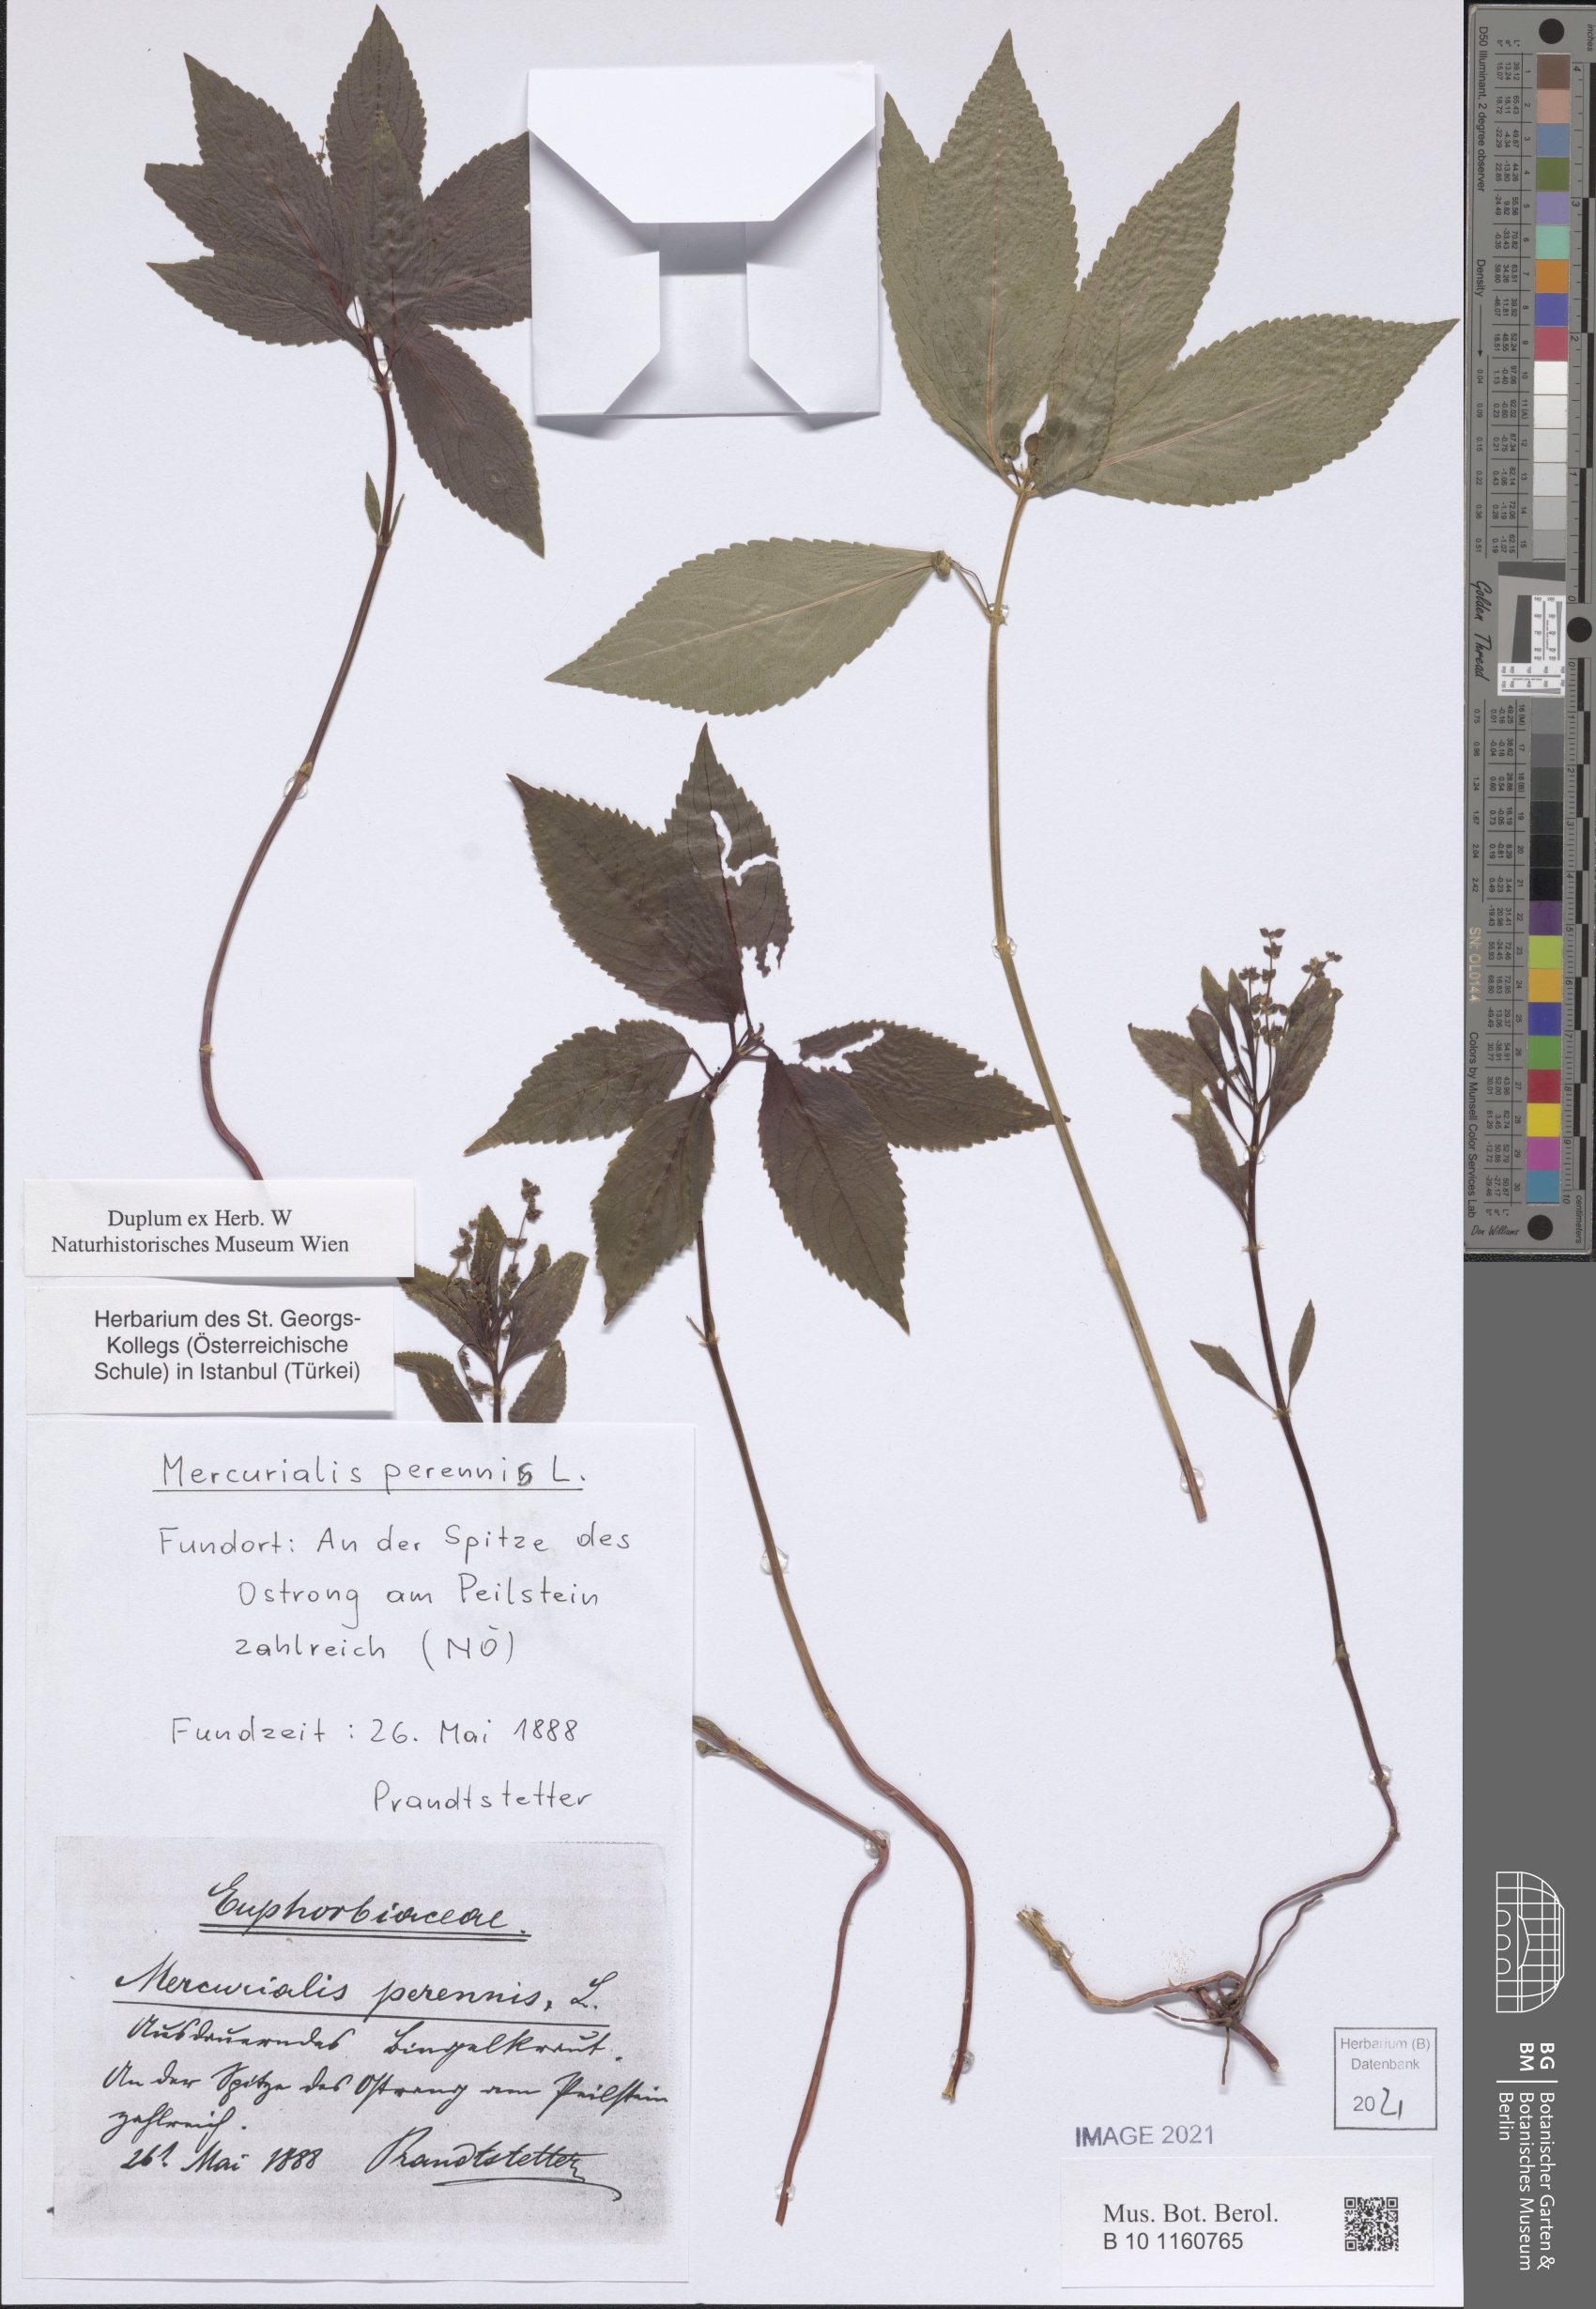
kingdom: Plantae
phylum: Tracheophyta
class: Magnoliopsida
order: Malpighiales
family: Euphorbiaceae
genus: Mercurialis
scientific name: Mercurialis perennis
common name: Dog mercury
